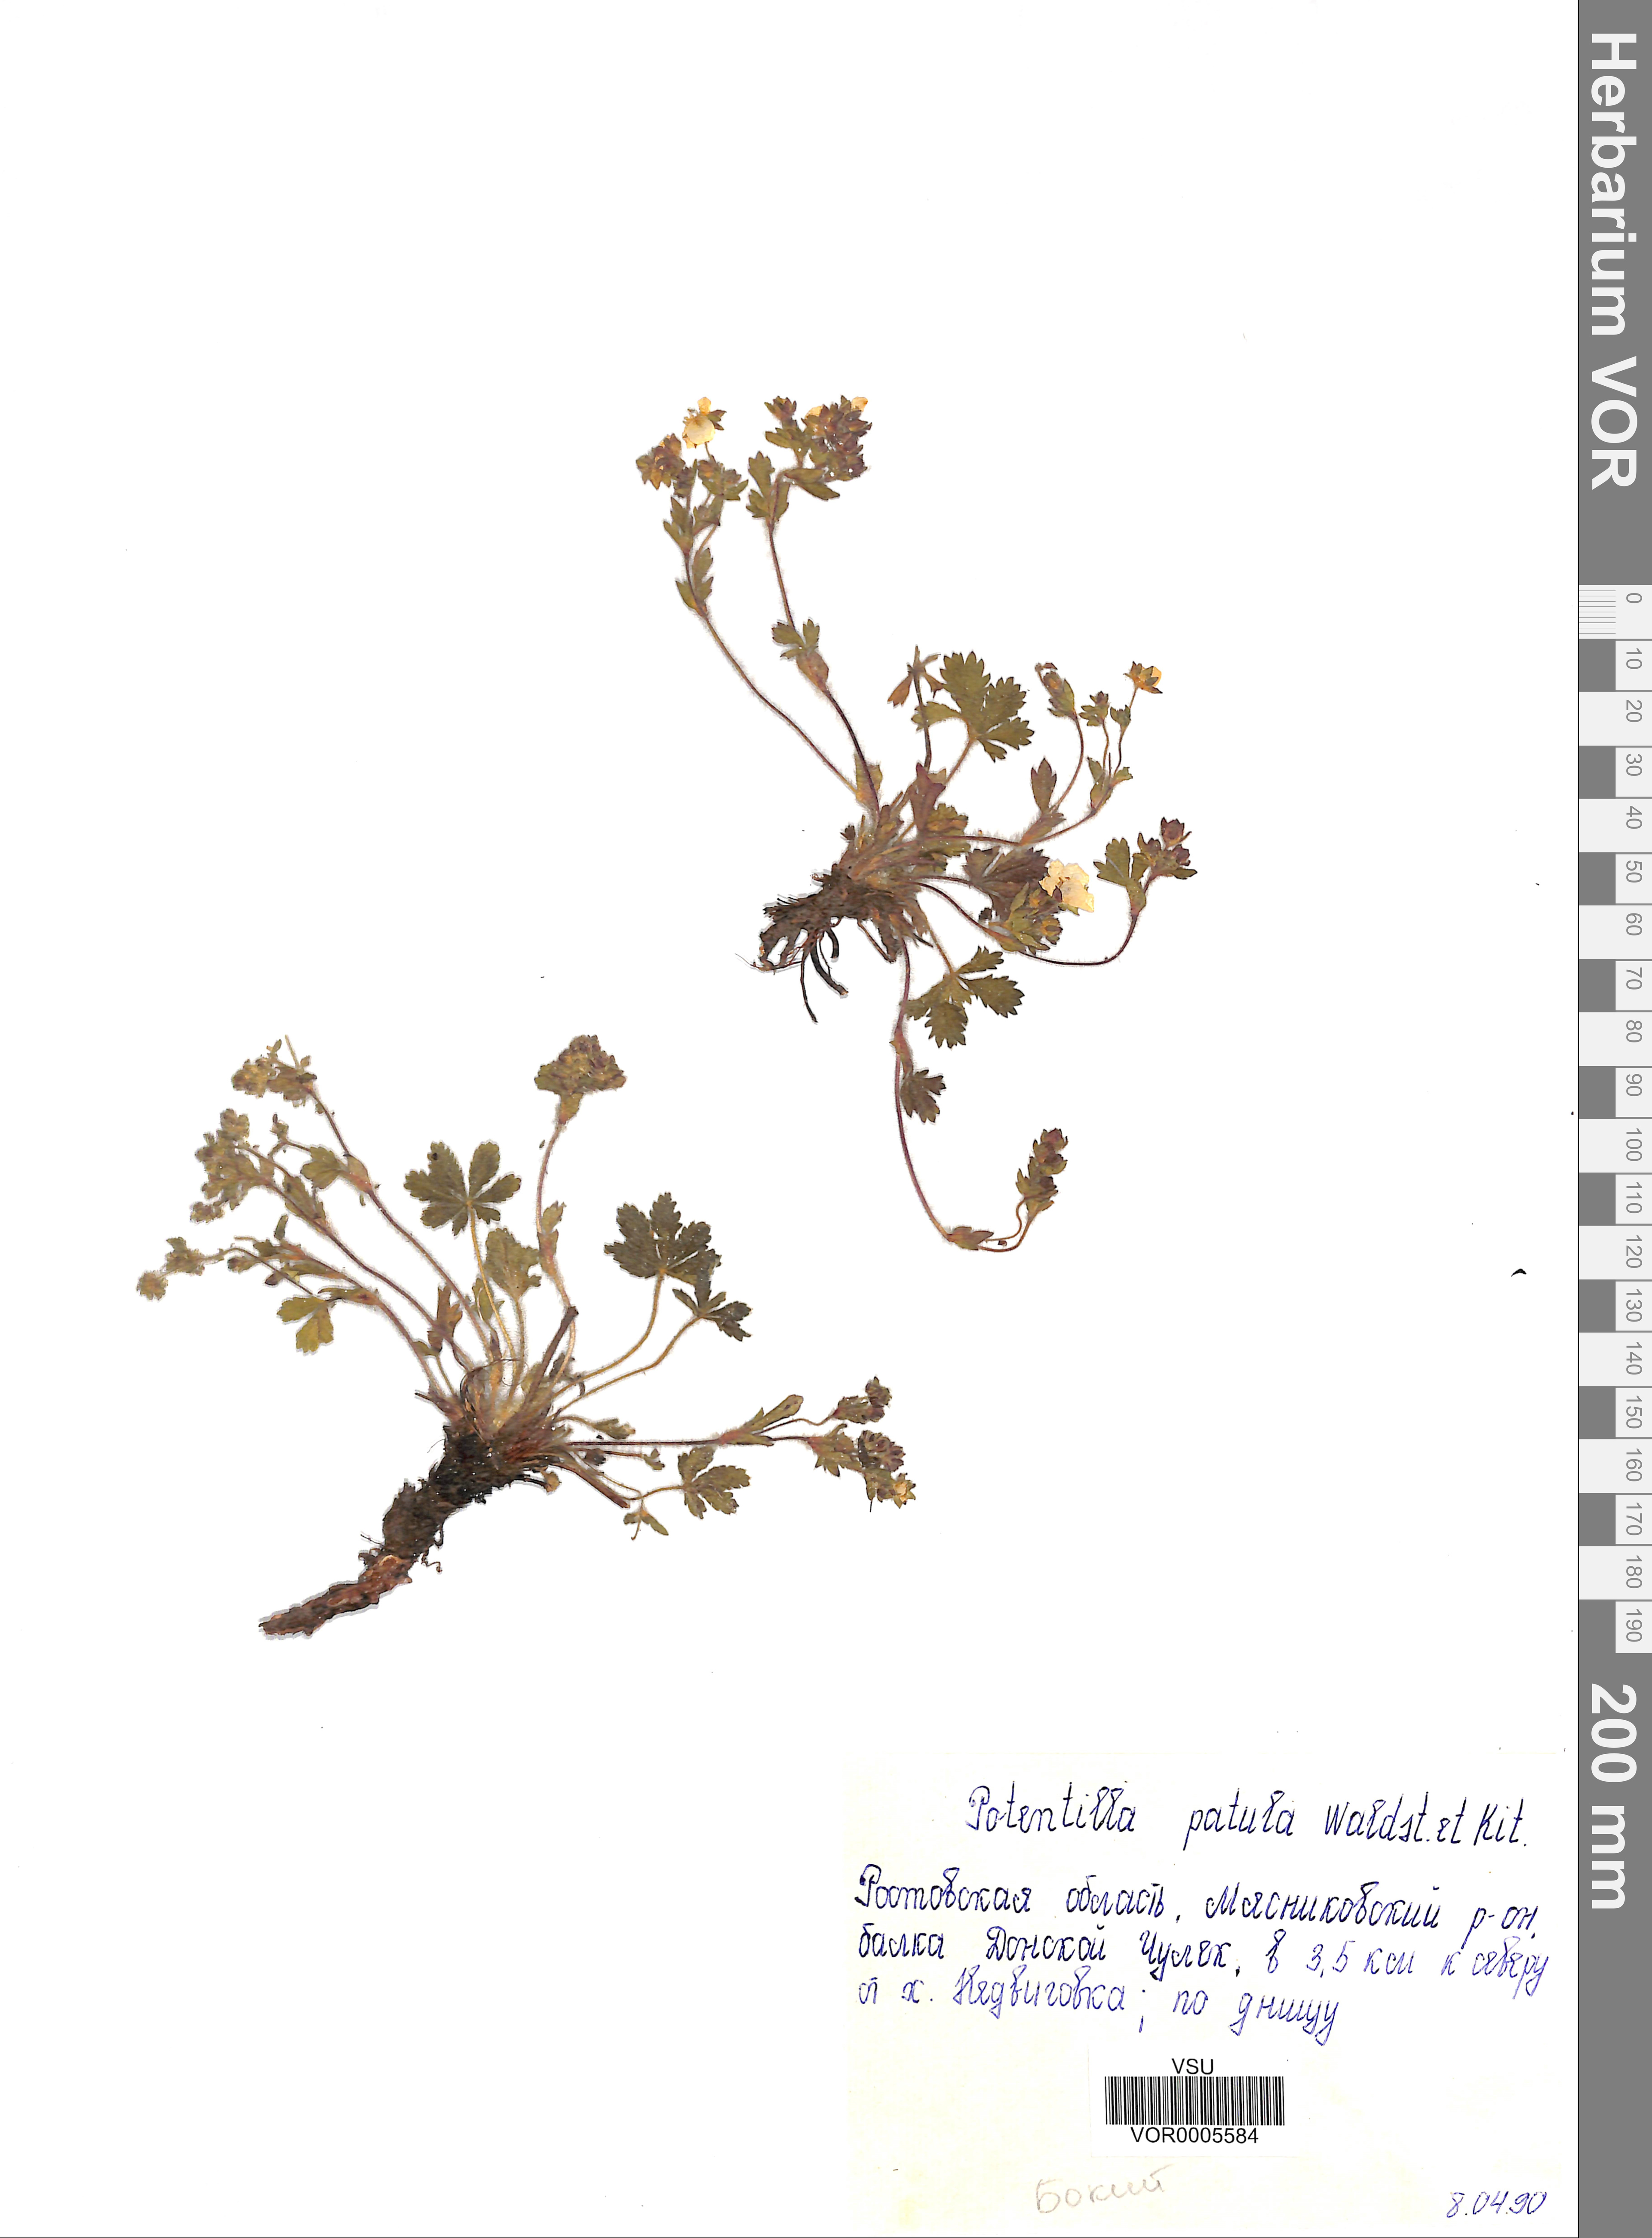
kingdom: Plantae
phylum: Tracheophyta
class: Magnoliopsida
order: Rosales
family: Rosaceae
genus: Potentilla
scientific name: Potentilla patula
